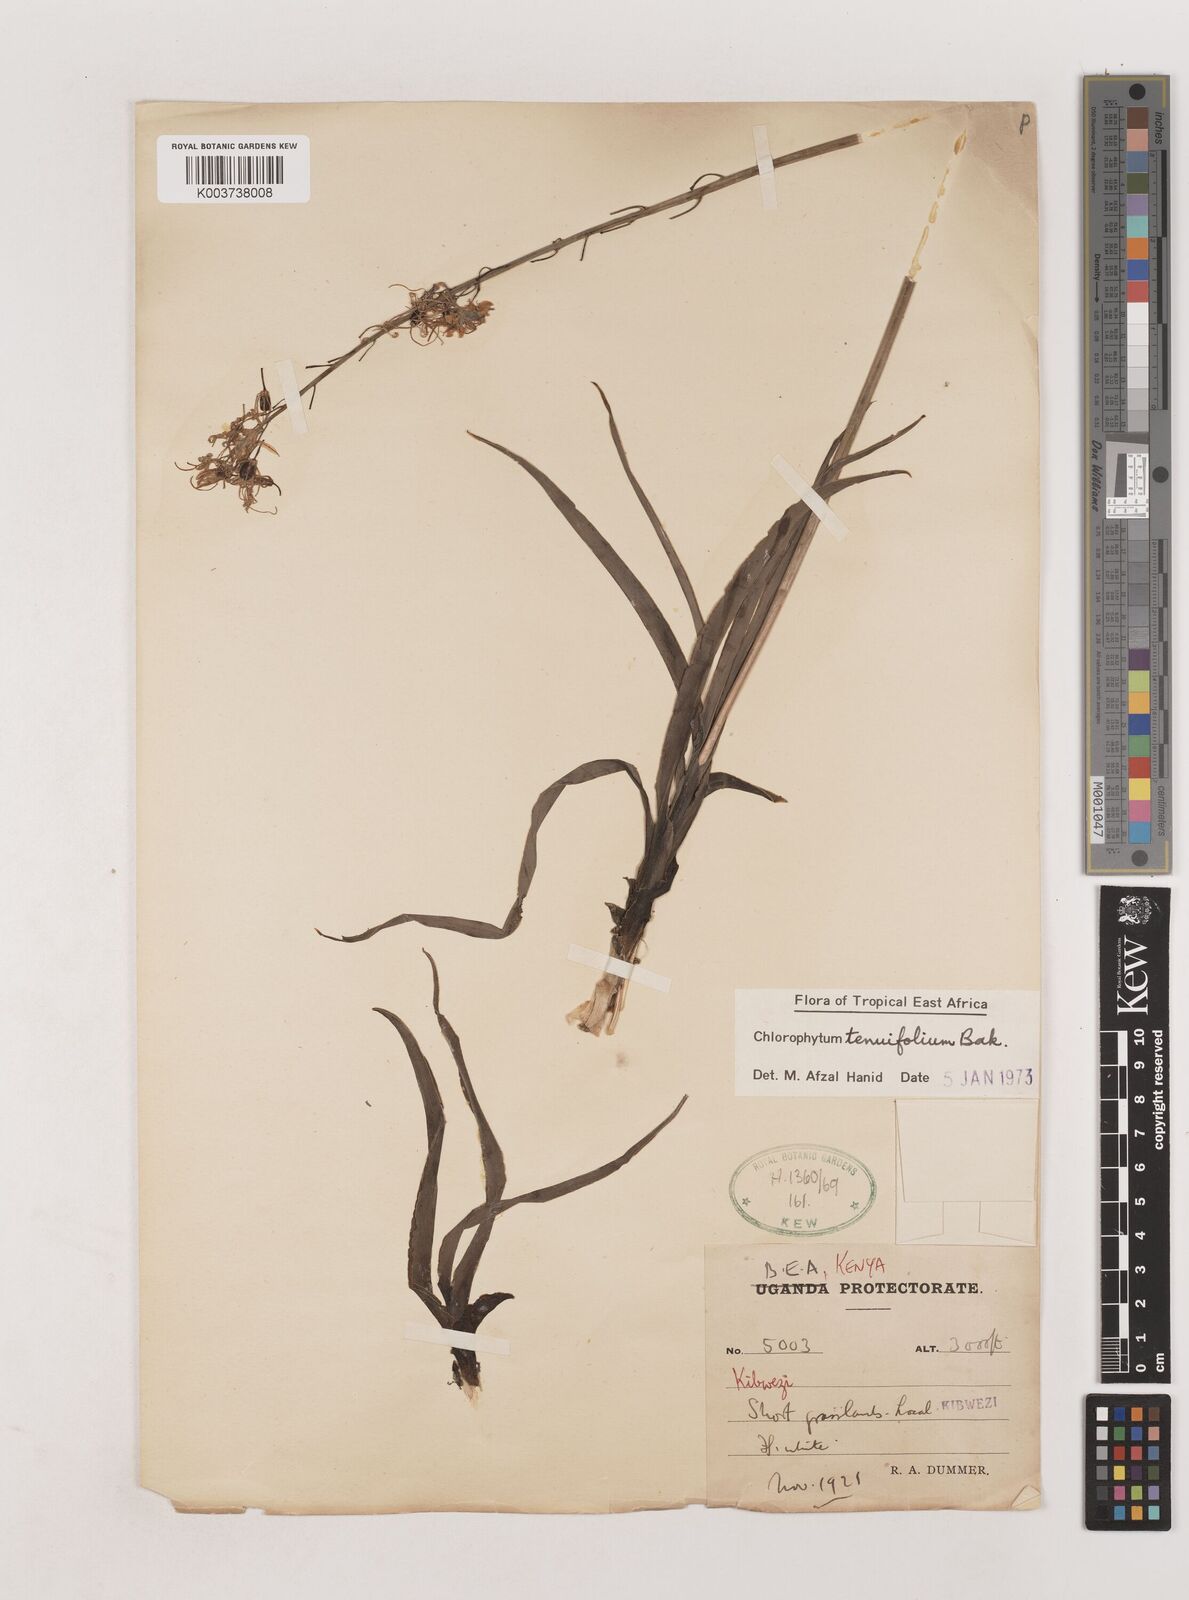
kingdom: Plantae
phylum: Tracheophyta
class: Liliopsida
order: Asparagales
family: Asparagaceae
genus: Chlorophytum
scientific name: Chlorophytum somaliense
